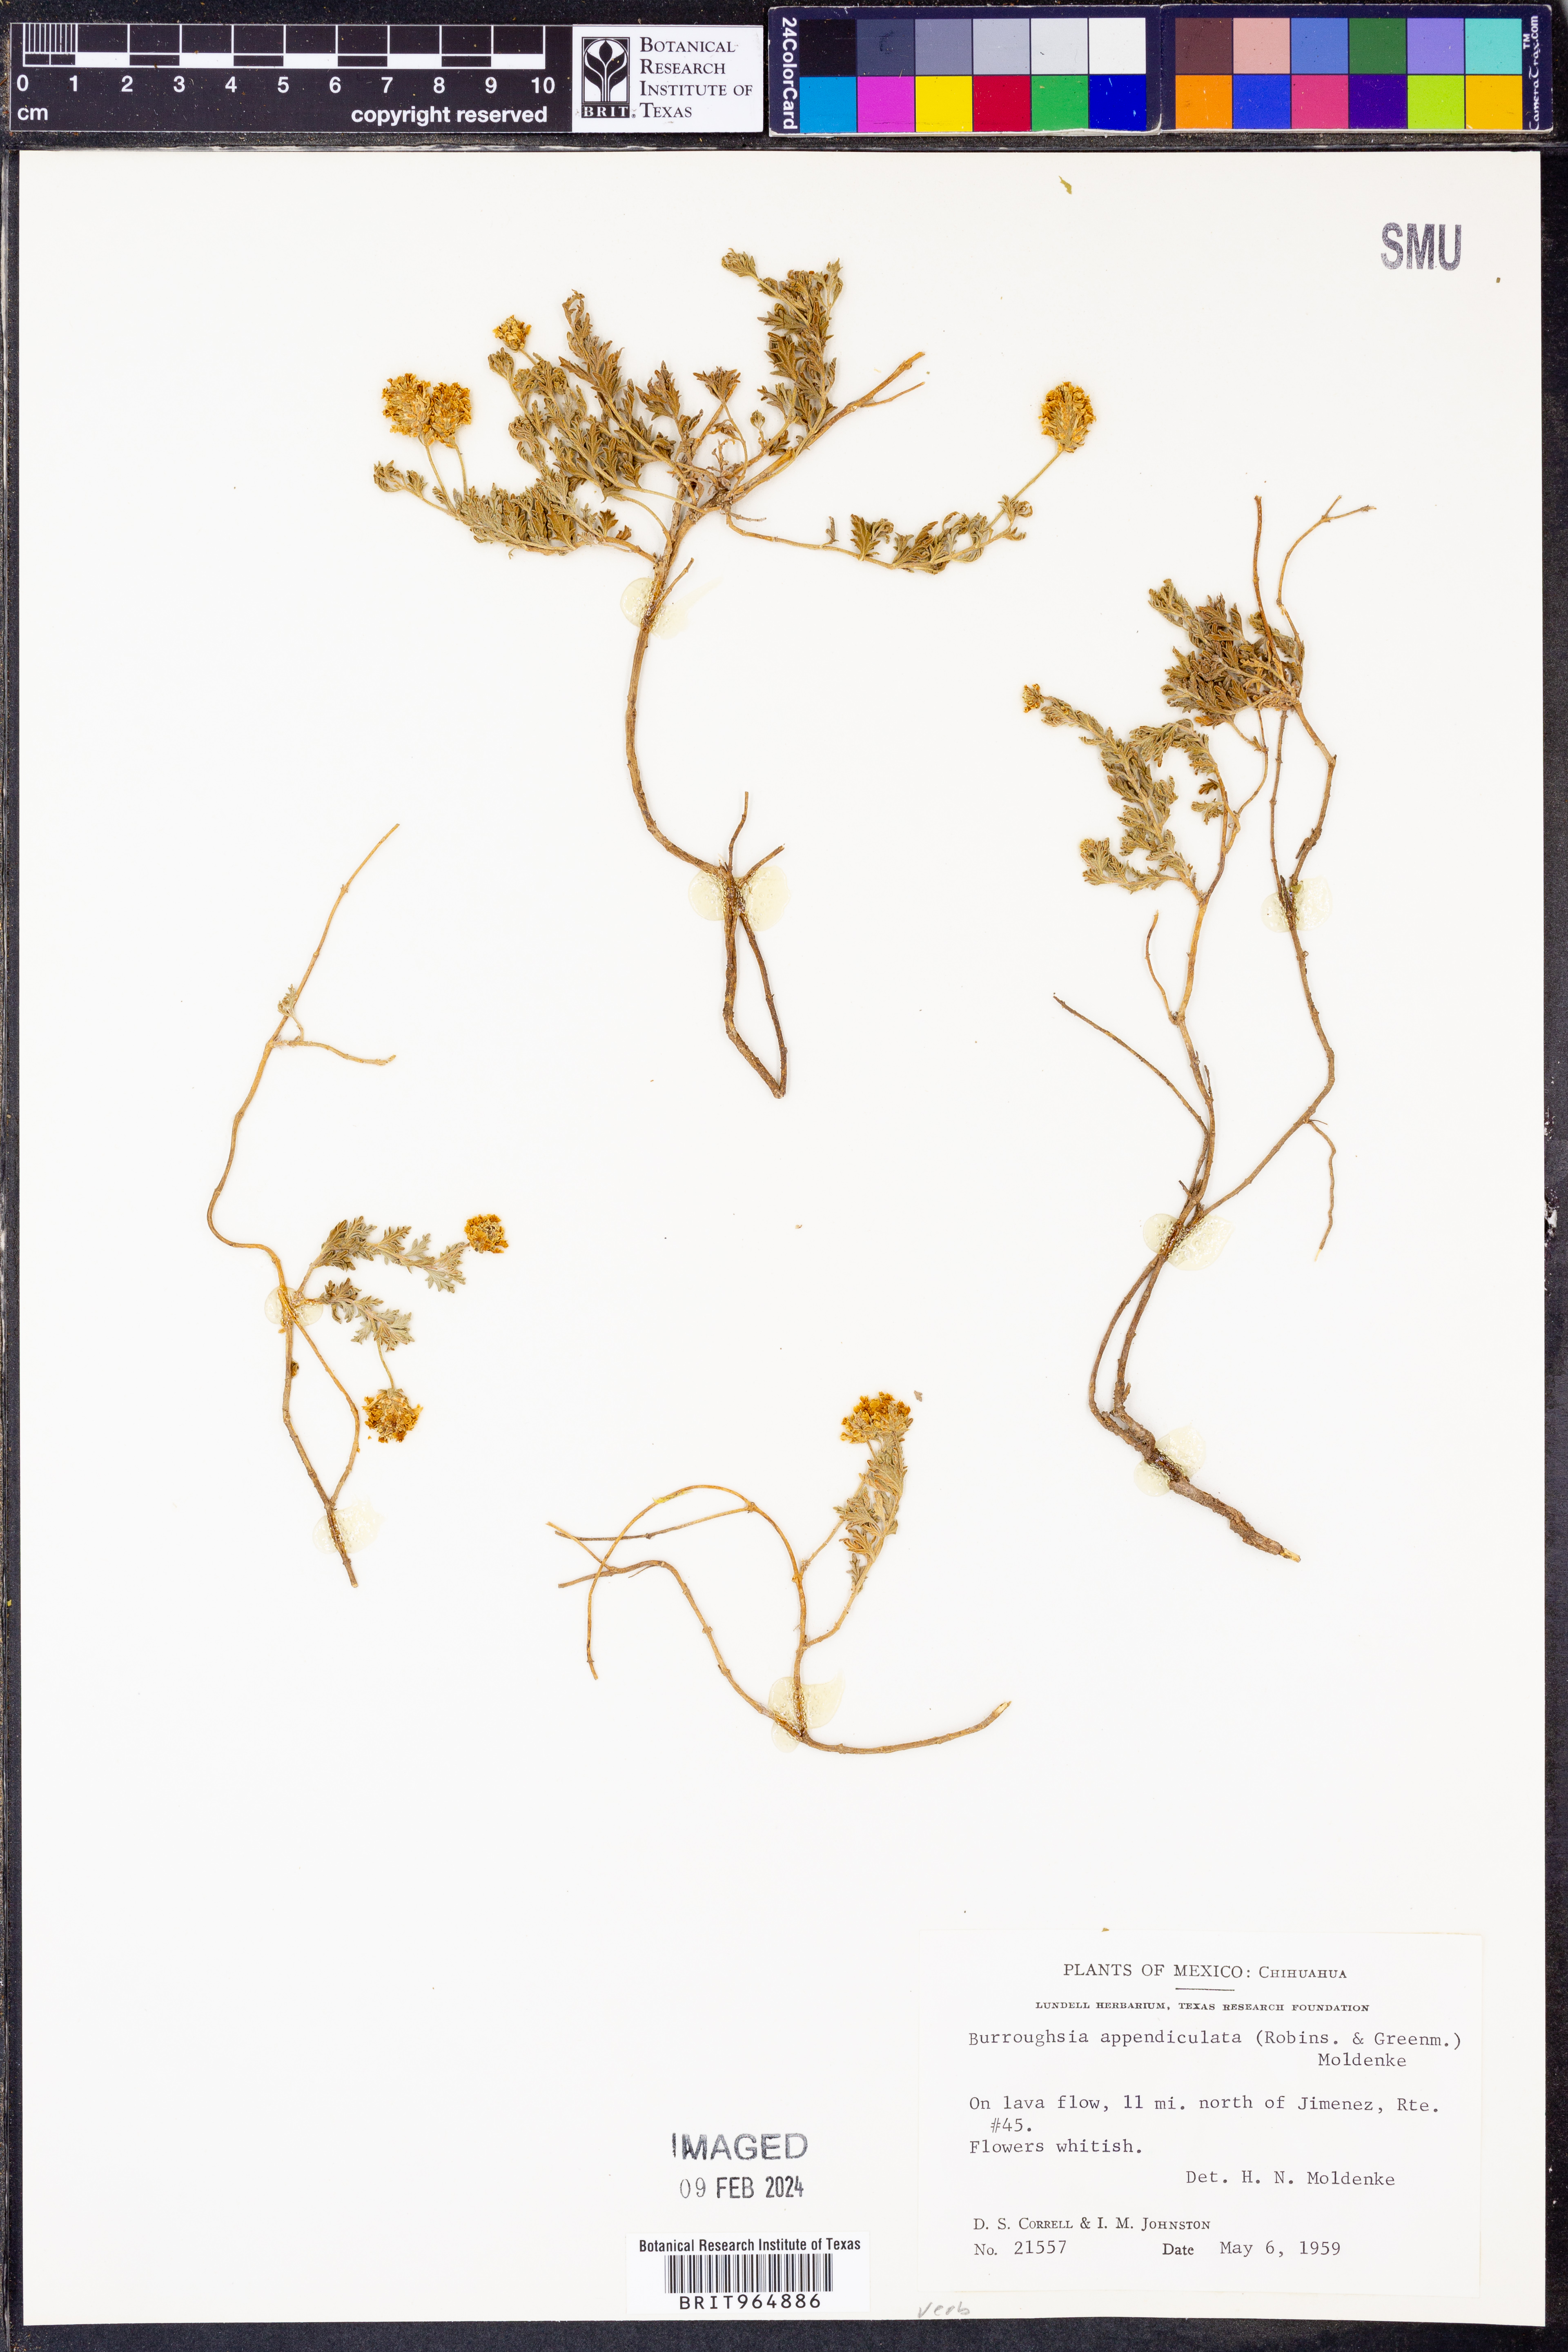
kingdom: Plantae
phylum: Tracheophyta
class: Magnoliopsida
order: Lamiales
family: Verbenaceae
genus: Lippia
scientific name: Lippia
